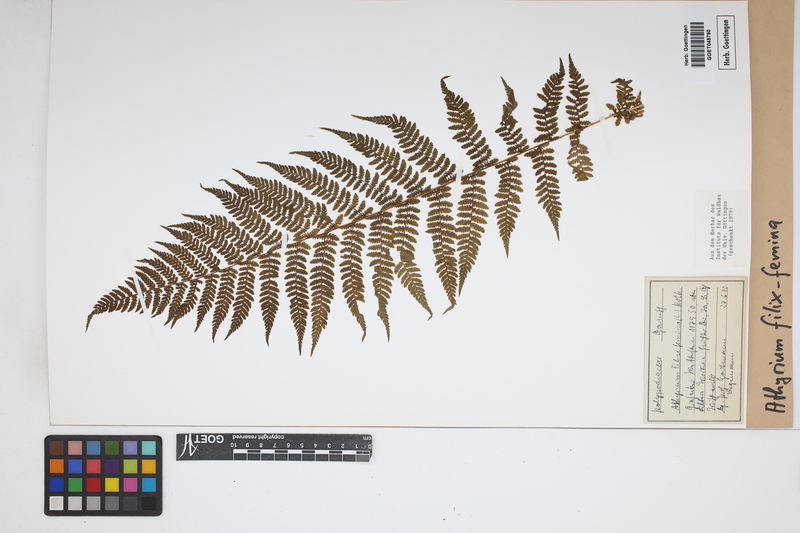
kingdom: Plantae
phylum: Tracheophyta
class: Polypodiopsida
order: Polypodiales
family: Athyriaceae
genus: Athyrium
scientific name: Athyrium filix-femina
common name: Lady fern
